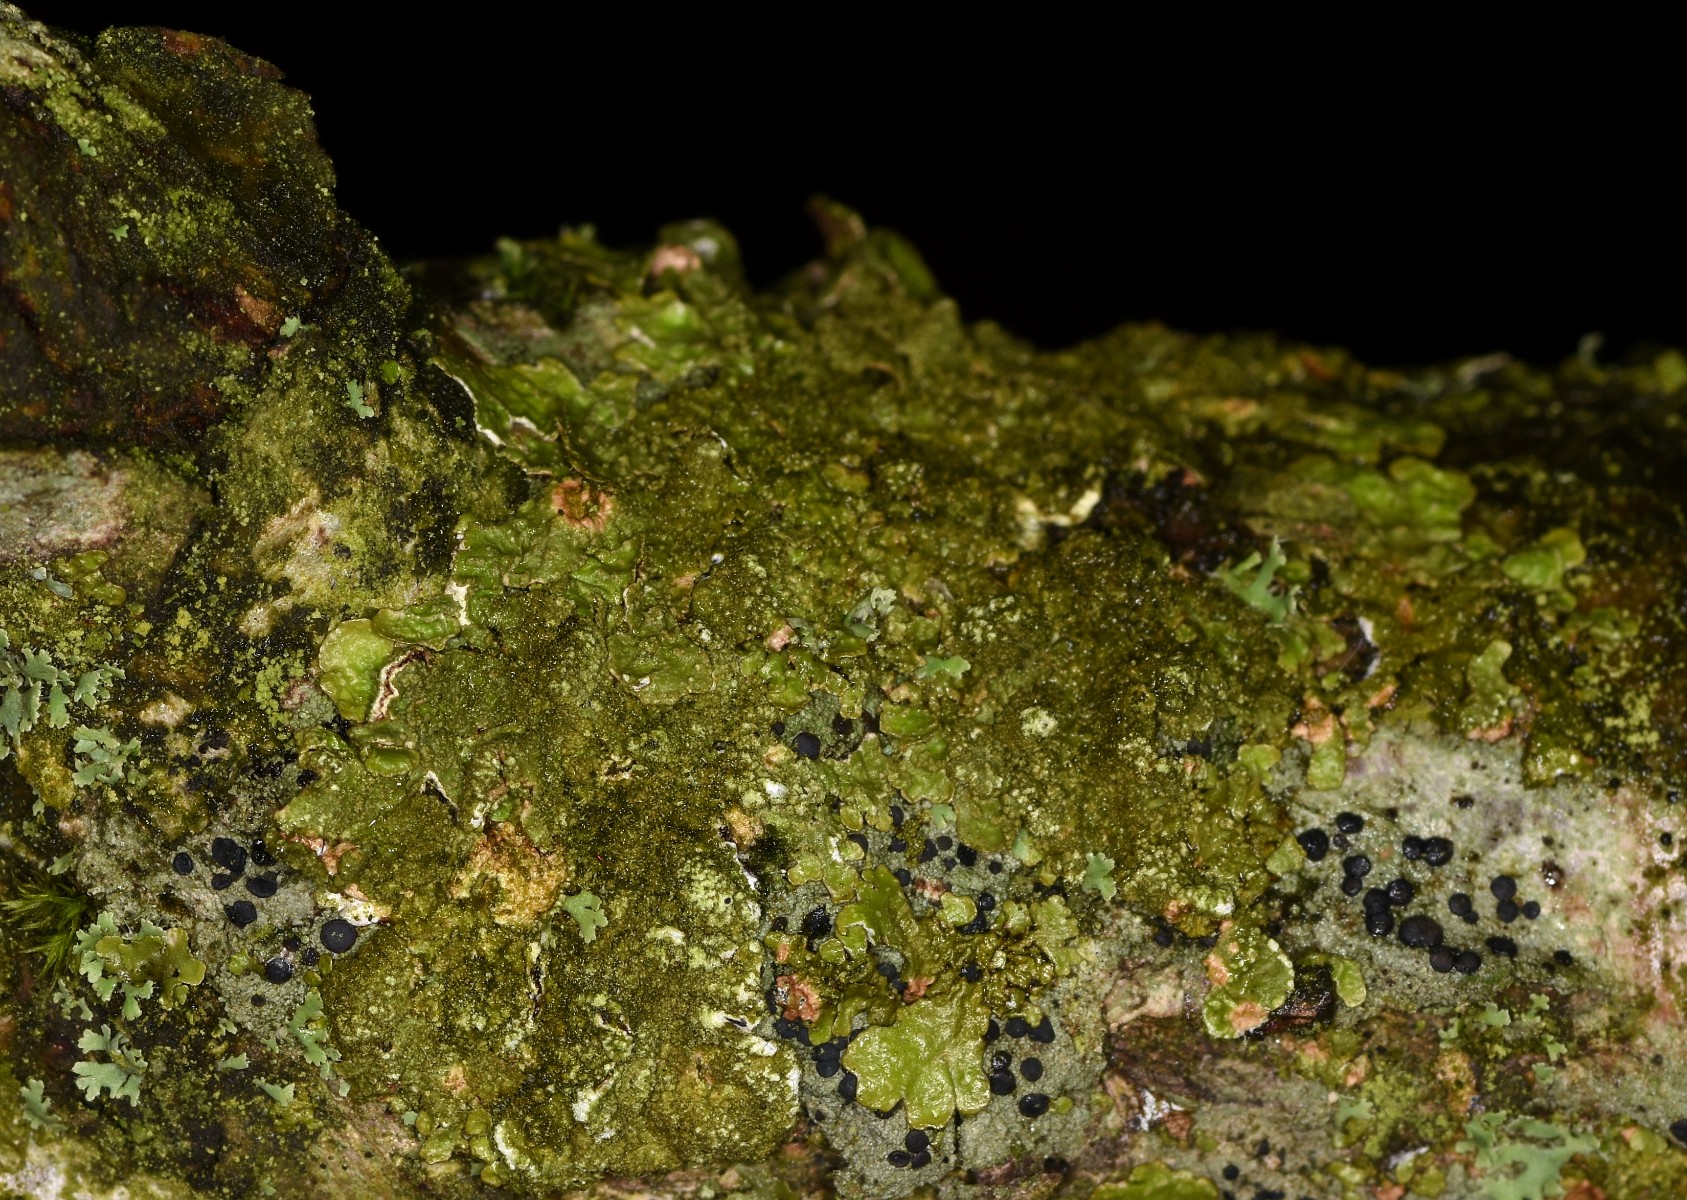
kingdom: Fungi
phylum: Ascomycota
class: Lecanoromycetes
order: Lecanorales
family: Parmeliaceae
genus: Melanelixia
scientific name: Melanelixia glabratula
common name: glinsende skållav
